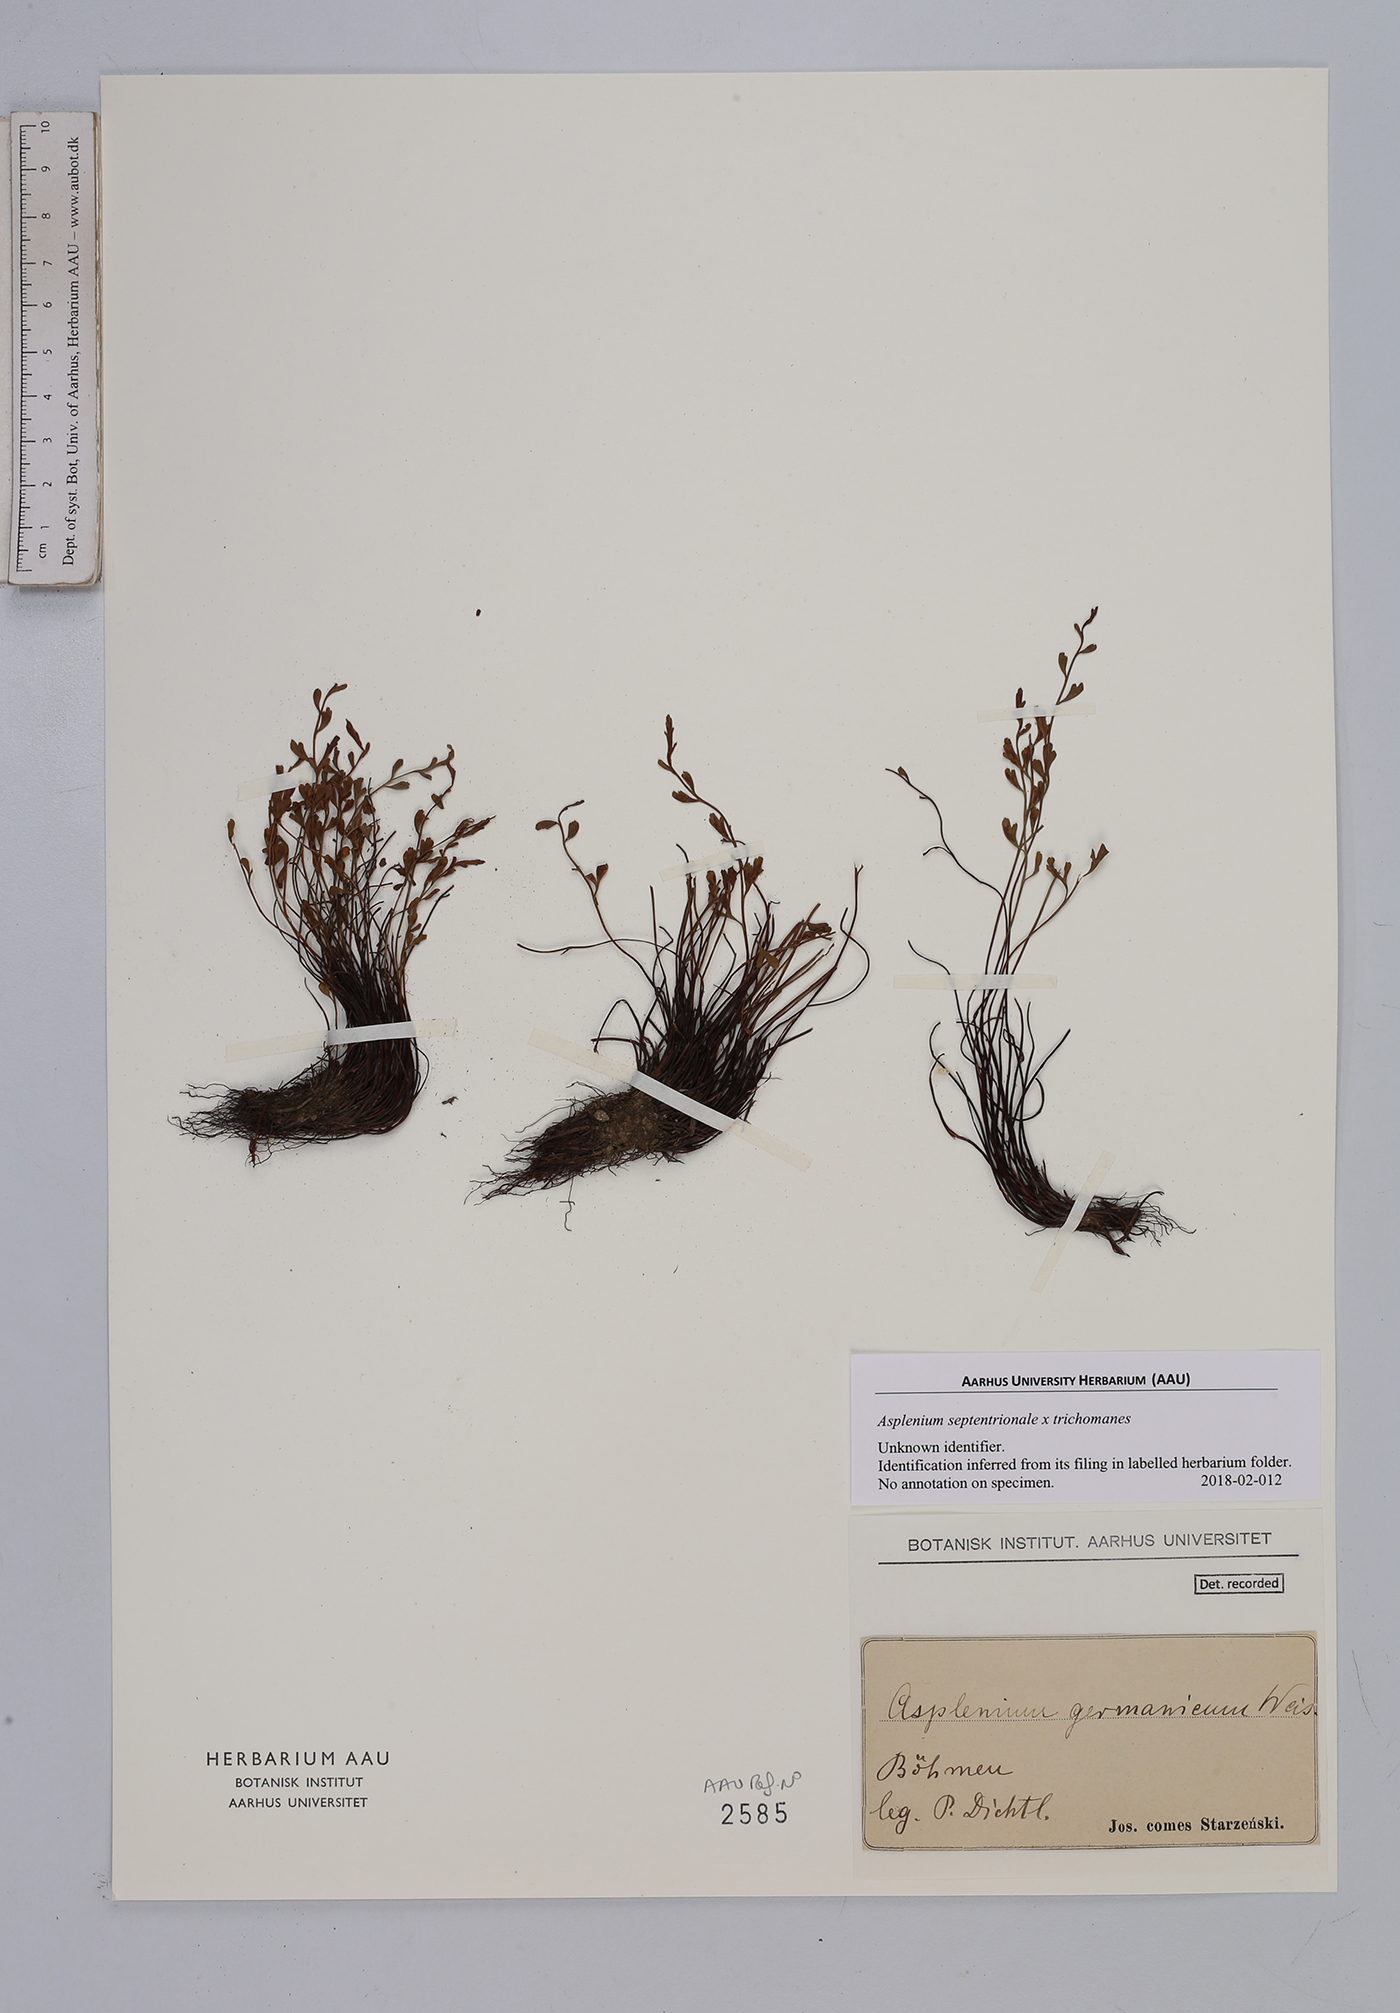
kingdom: Plantae
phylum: Tracheophyta
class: Polypodiopsida
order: Polypodiales
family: Aspleniaceae
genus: Asplenium
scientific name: Asplenium
